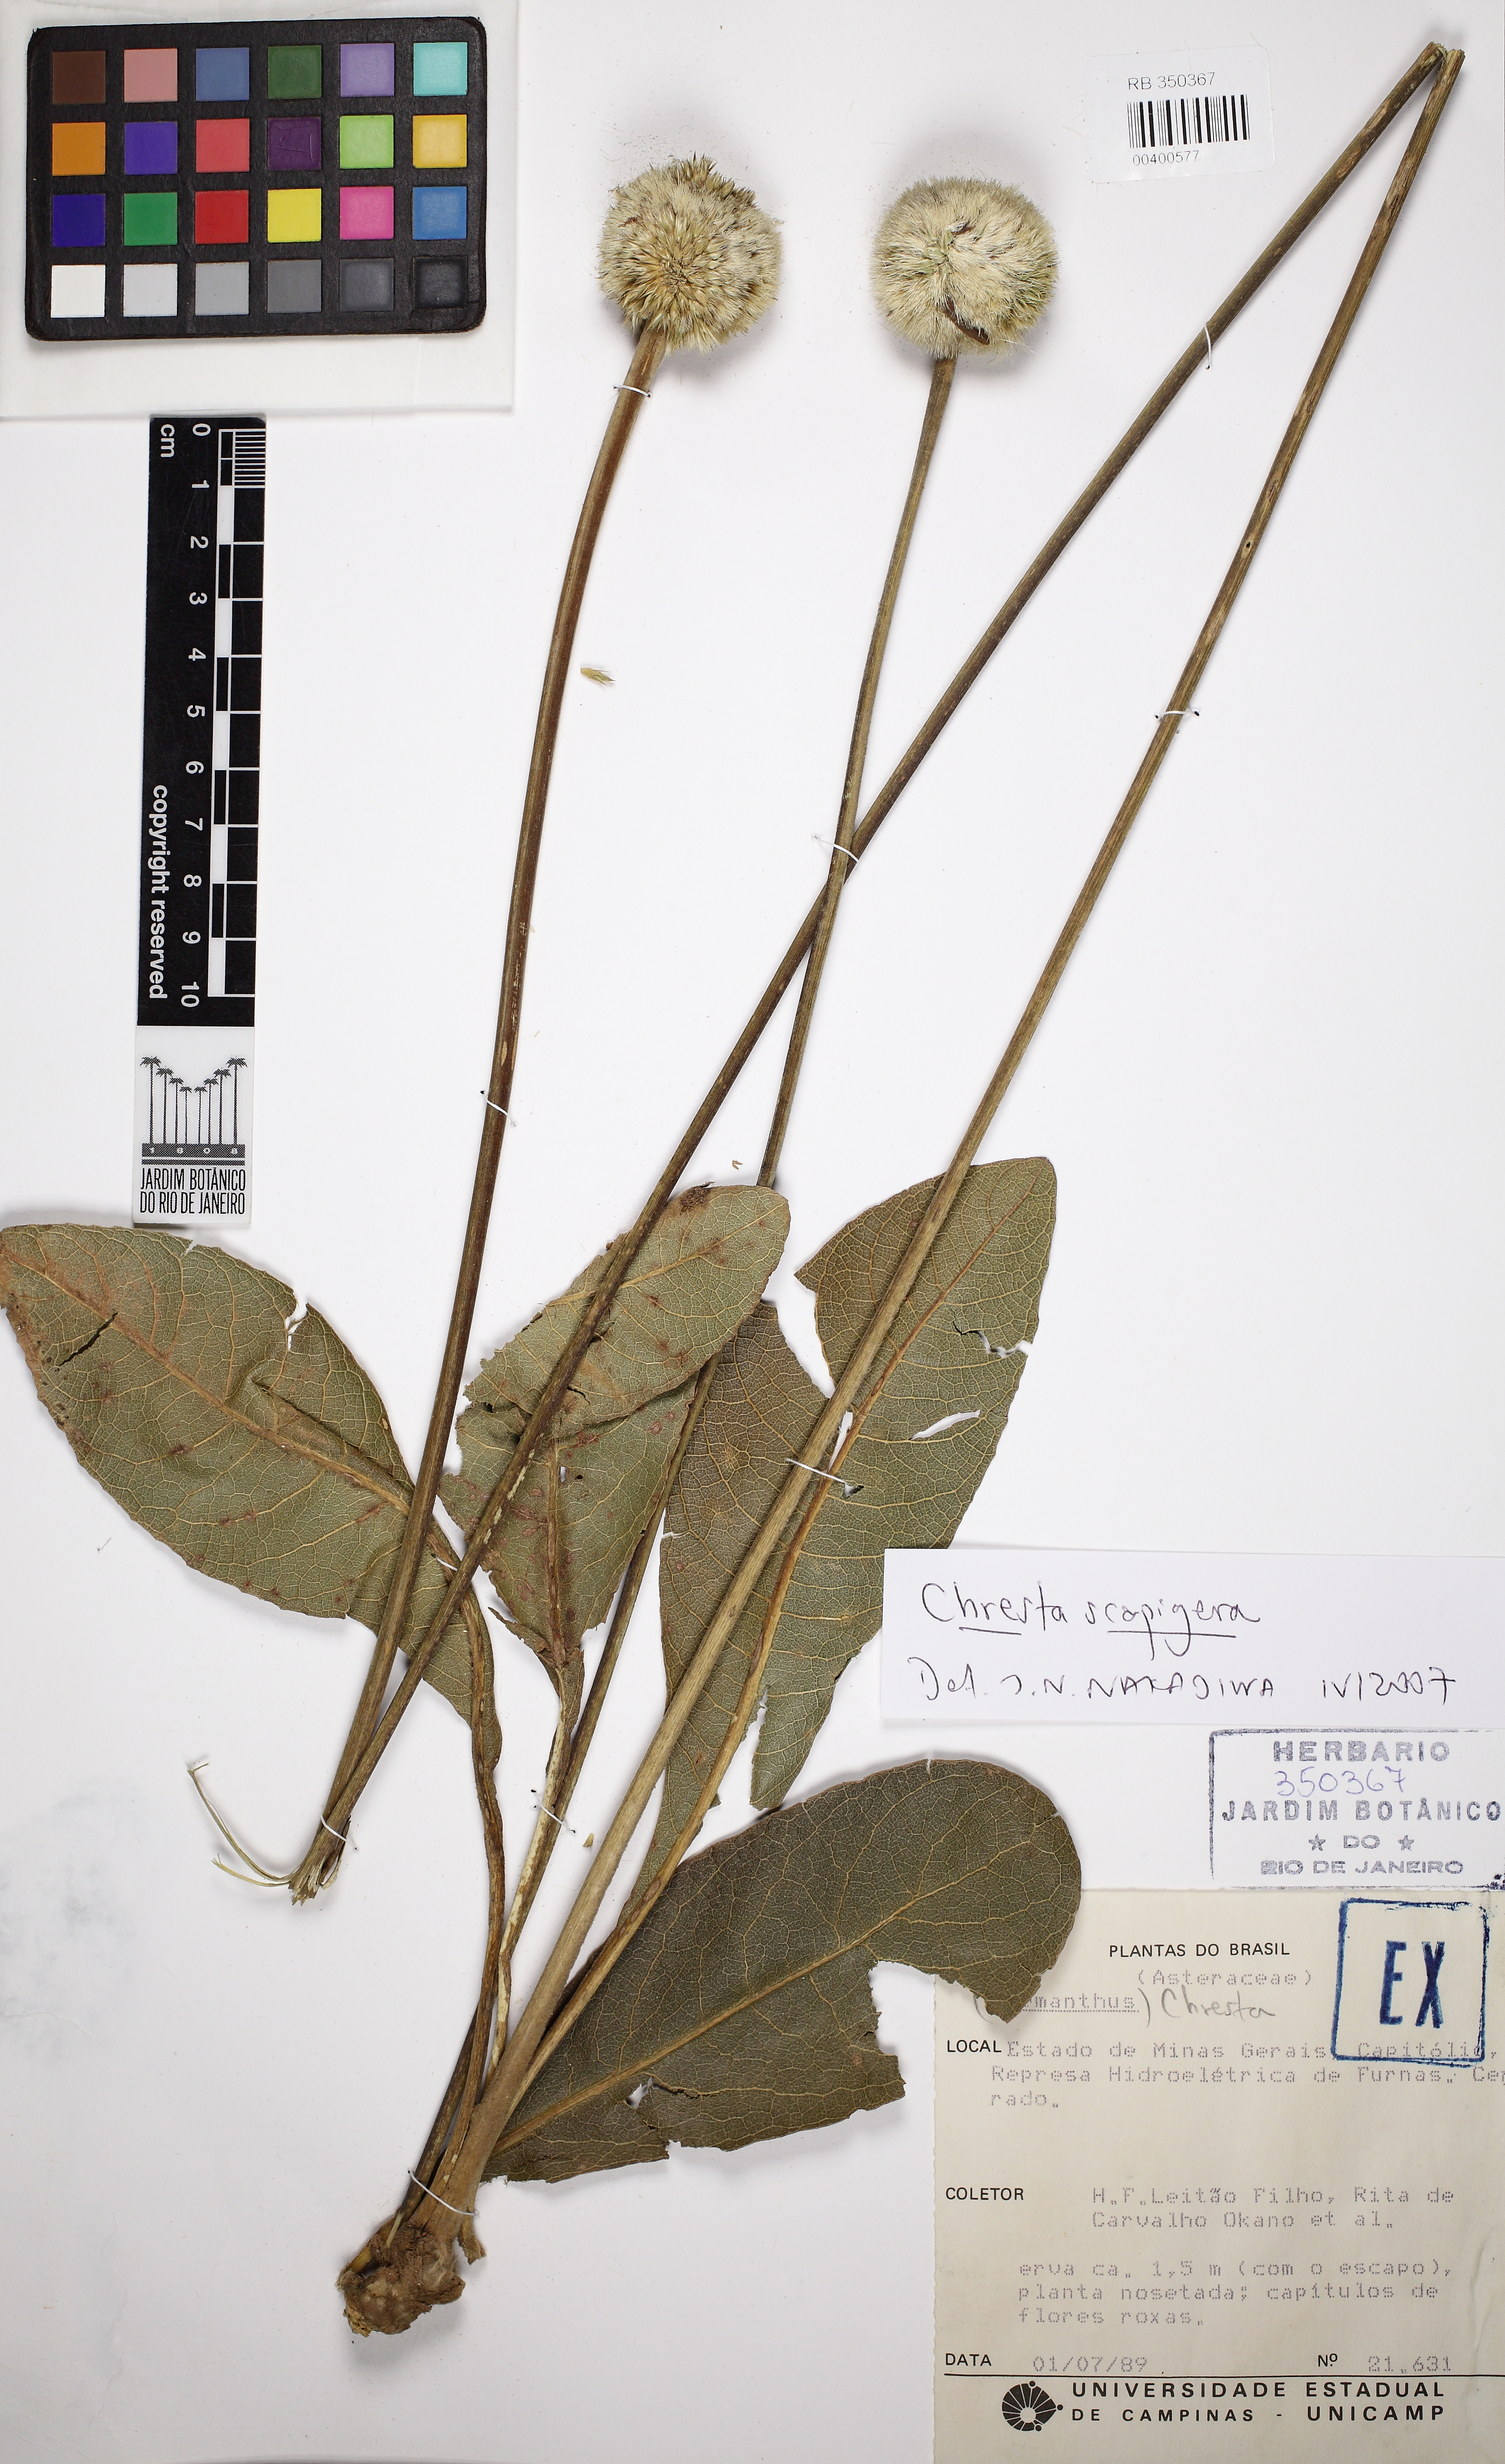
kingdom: Plantae
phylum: Tracheophyta
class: Magnoliopsida
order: Asterales
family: Asteraceae
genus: Chresta
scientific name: Chresta scapigera
